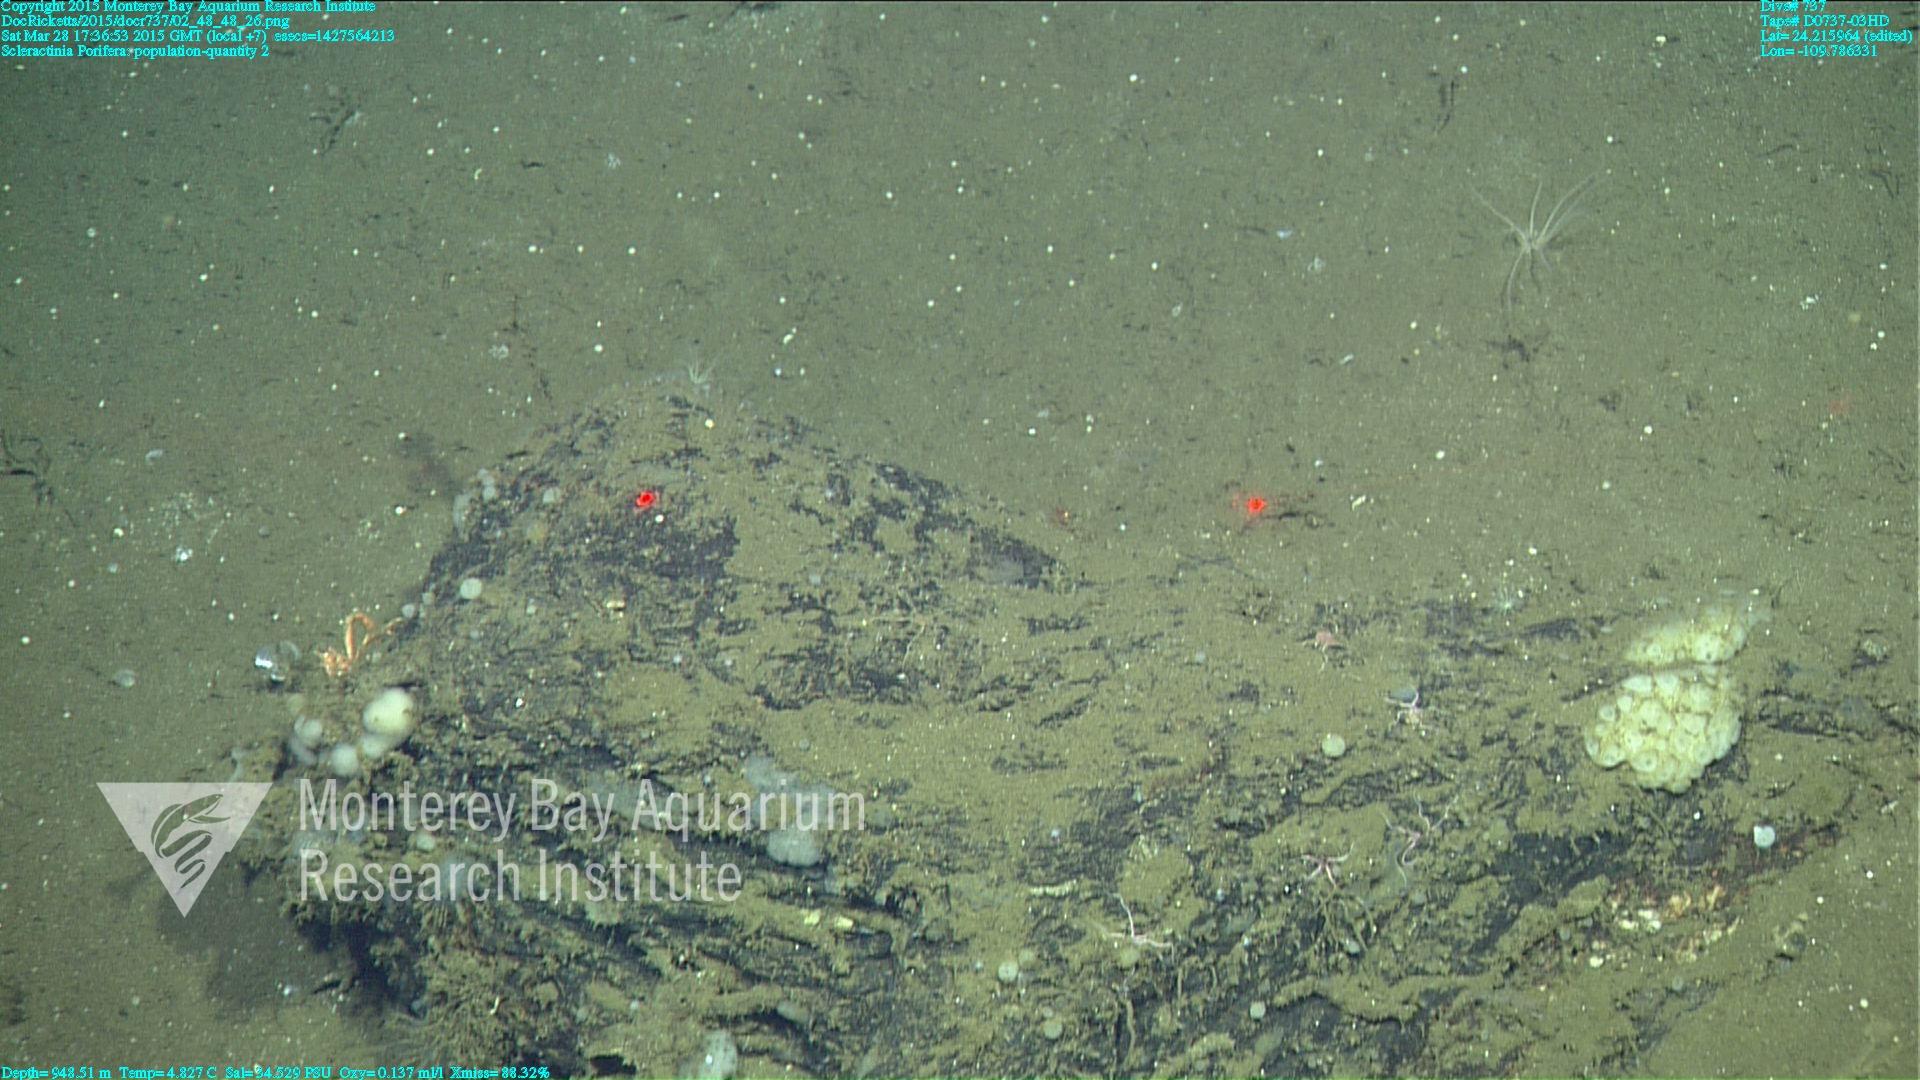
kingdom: Animalia
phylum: Cnidaria
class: Anthozoa
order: Scleractinia
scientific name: Scleractinia
